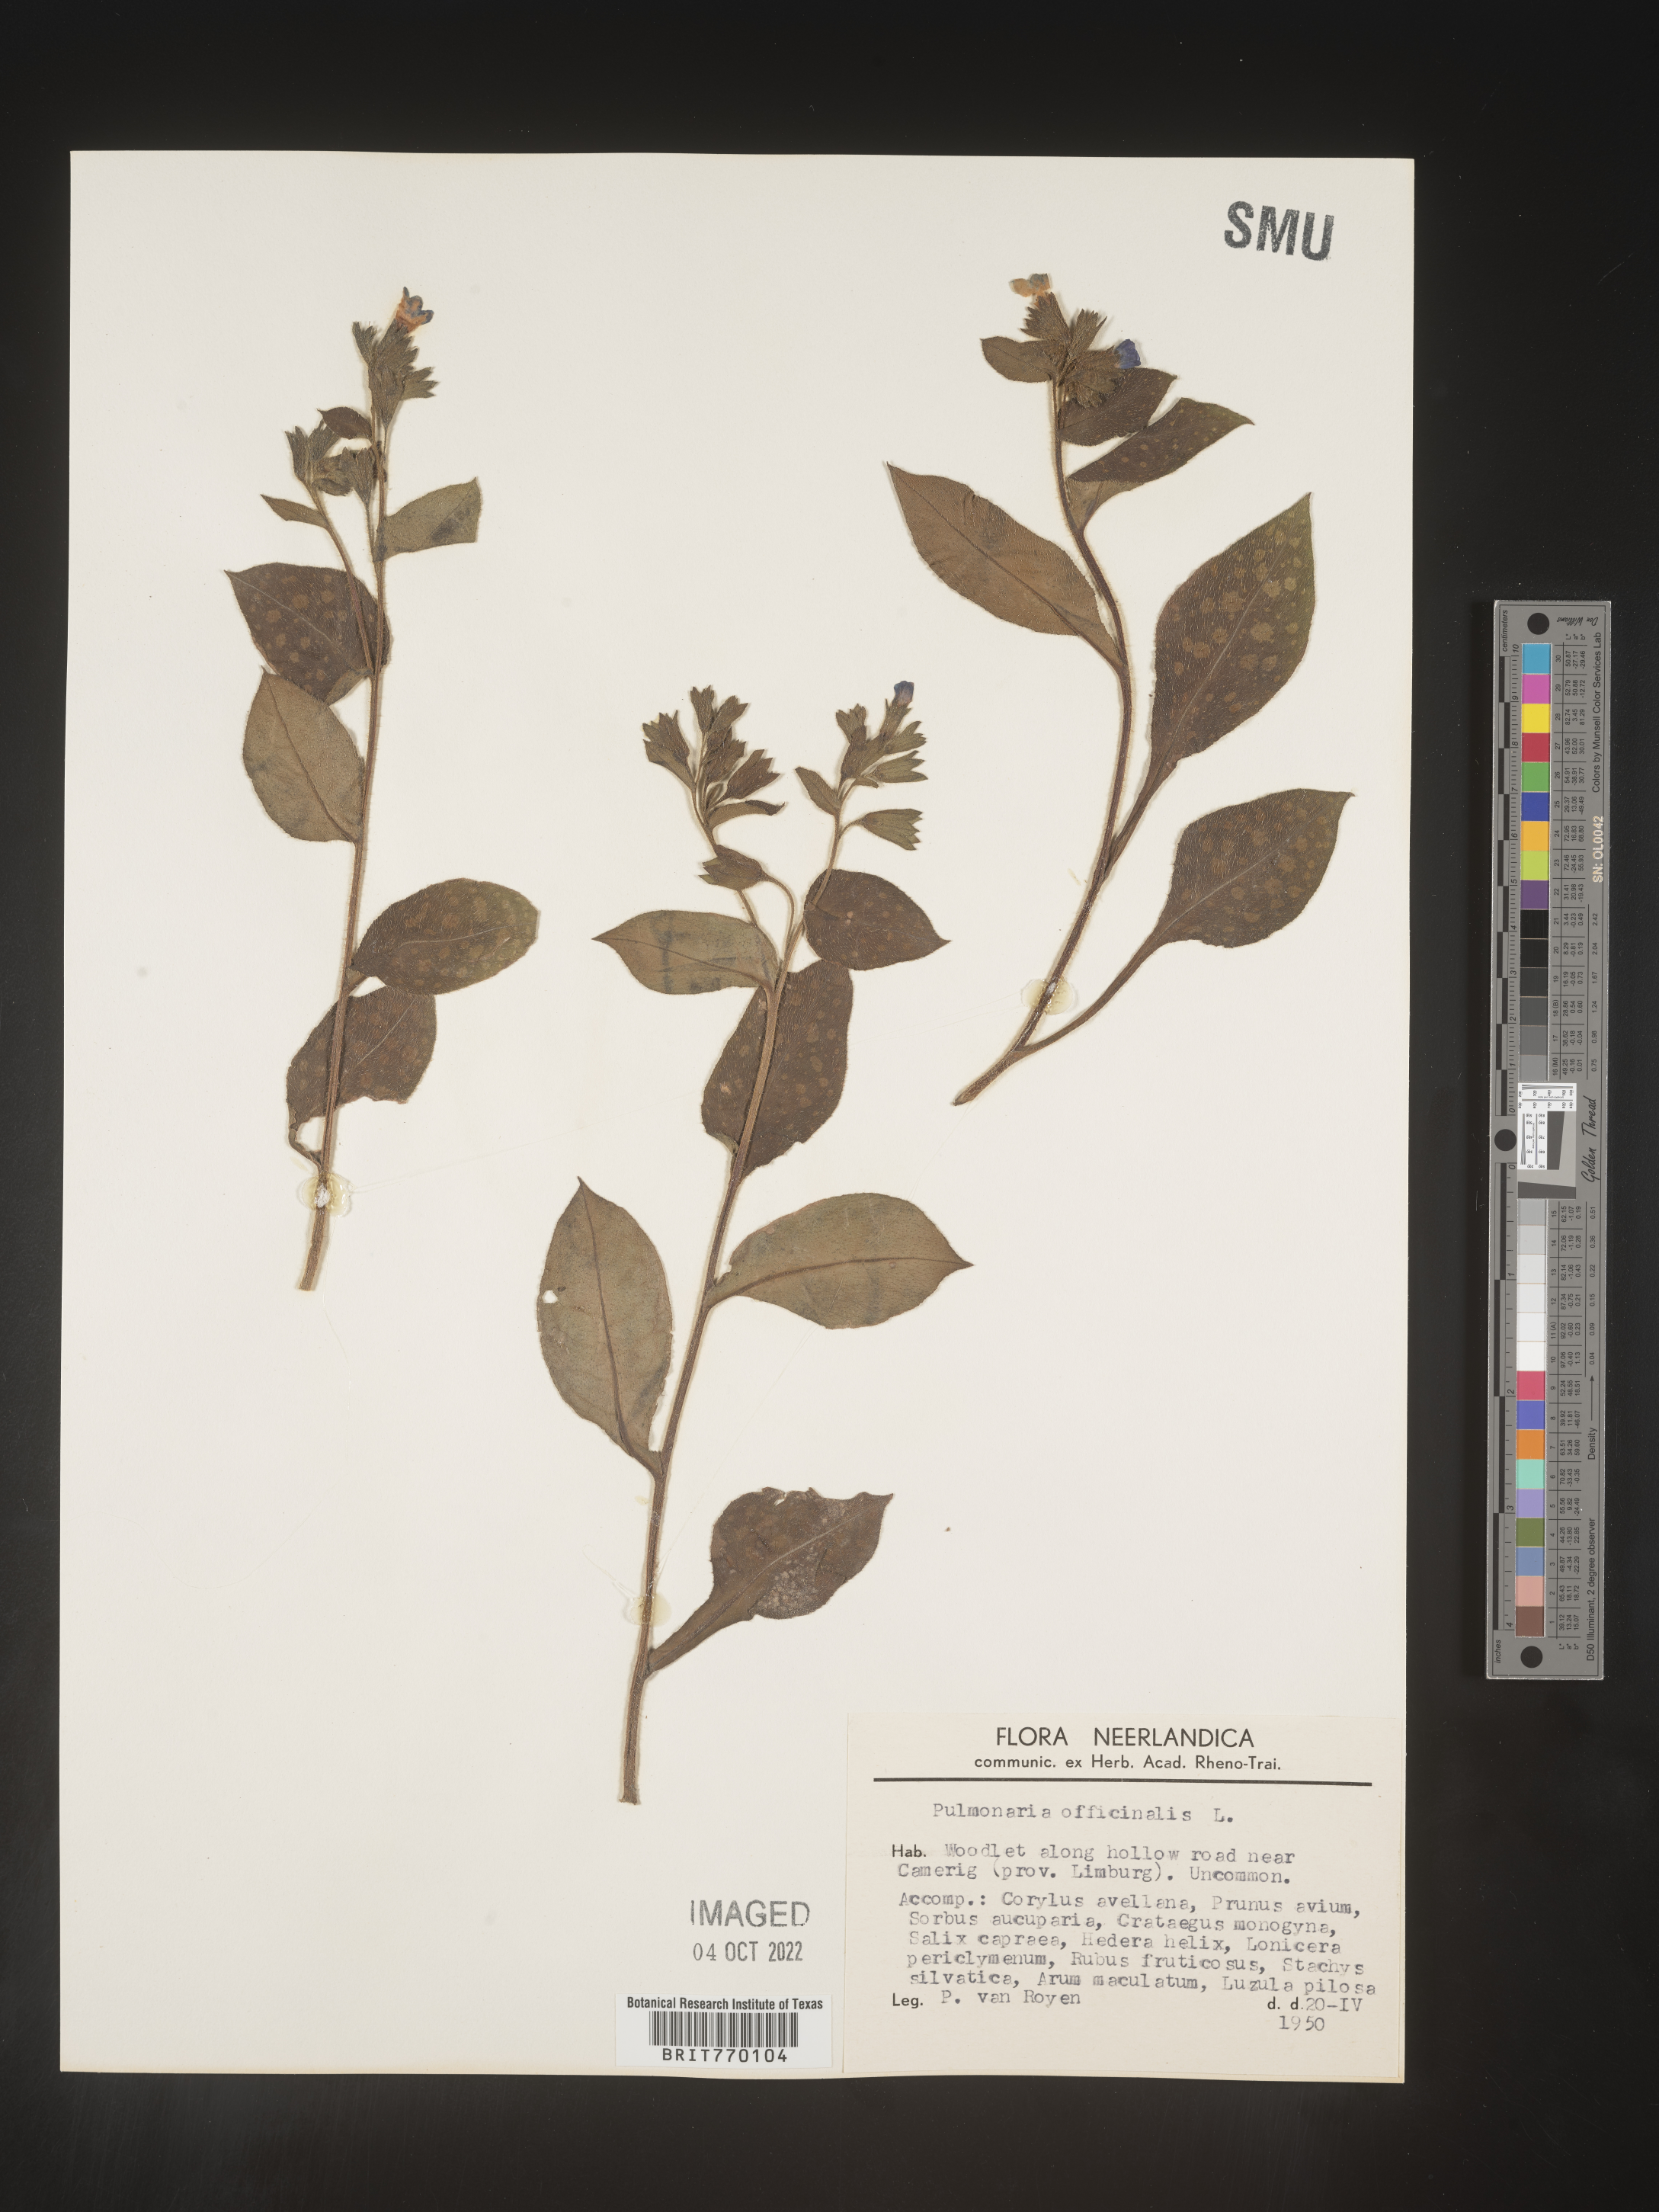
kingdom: Plantae
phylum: Tracheophyta
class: Magnoliopsida
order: Boraginales
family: Boraginaceae
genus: Pulmonaria
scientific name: Pulmonaria
